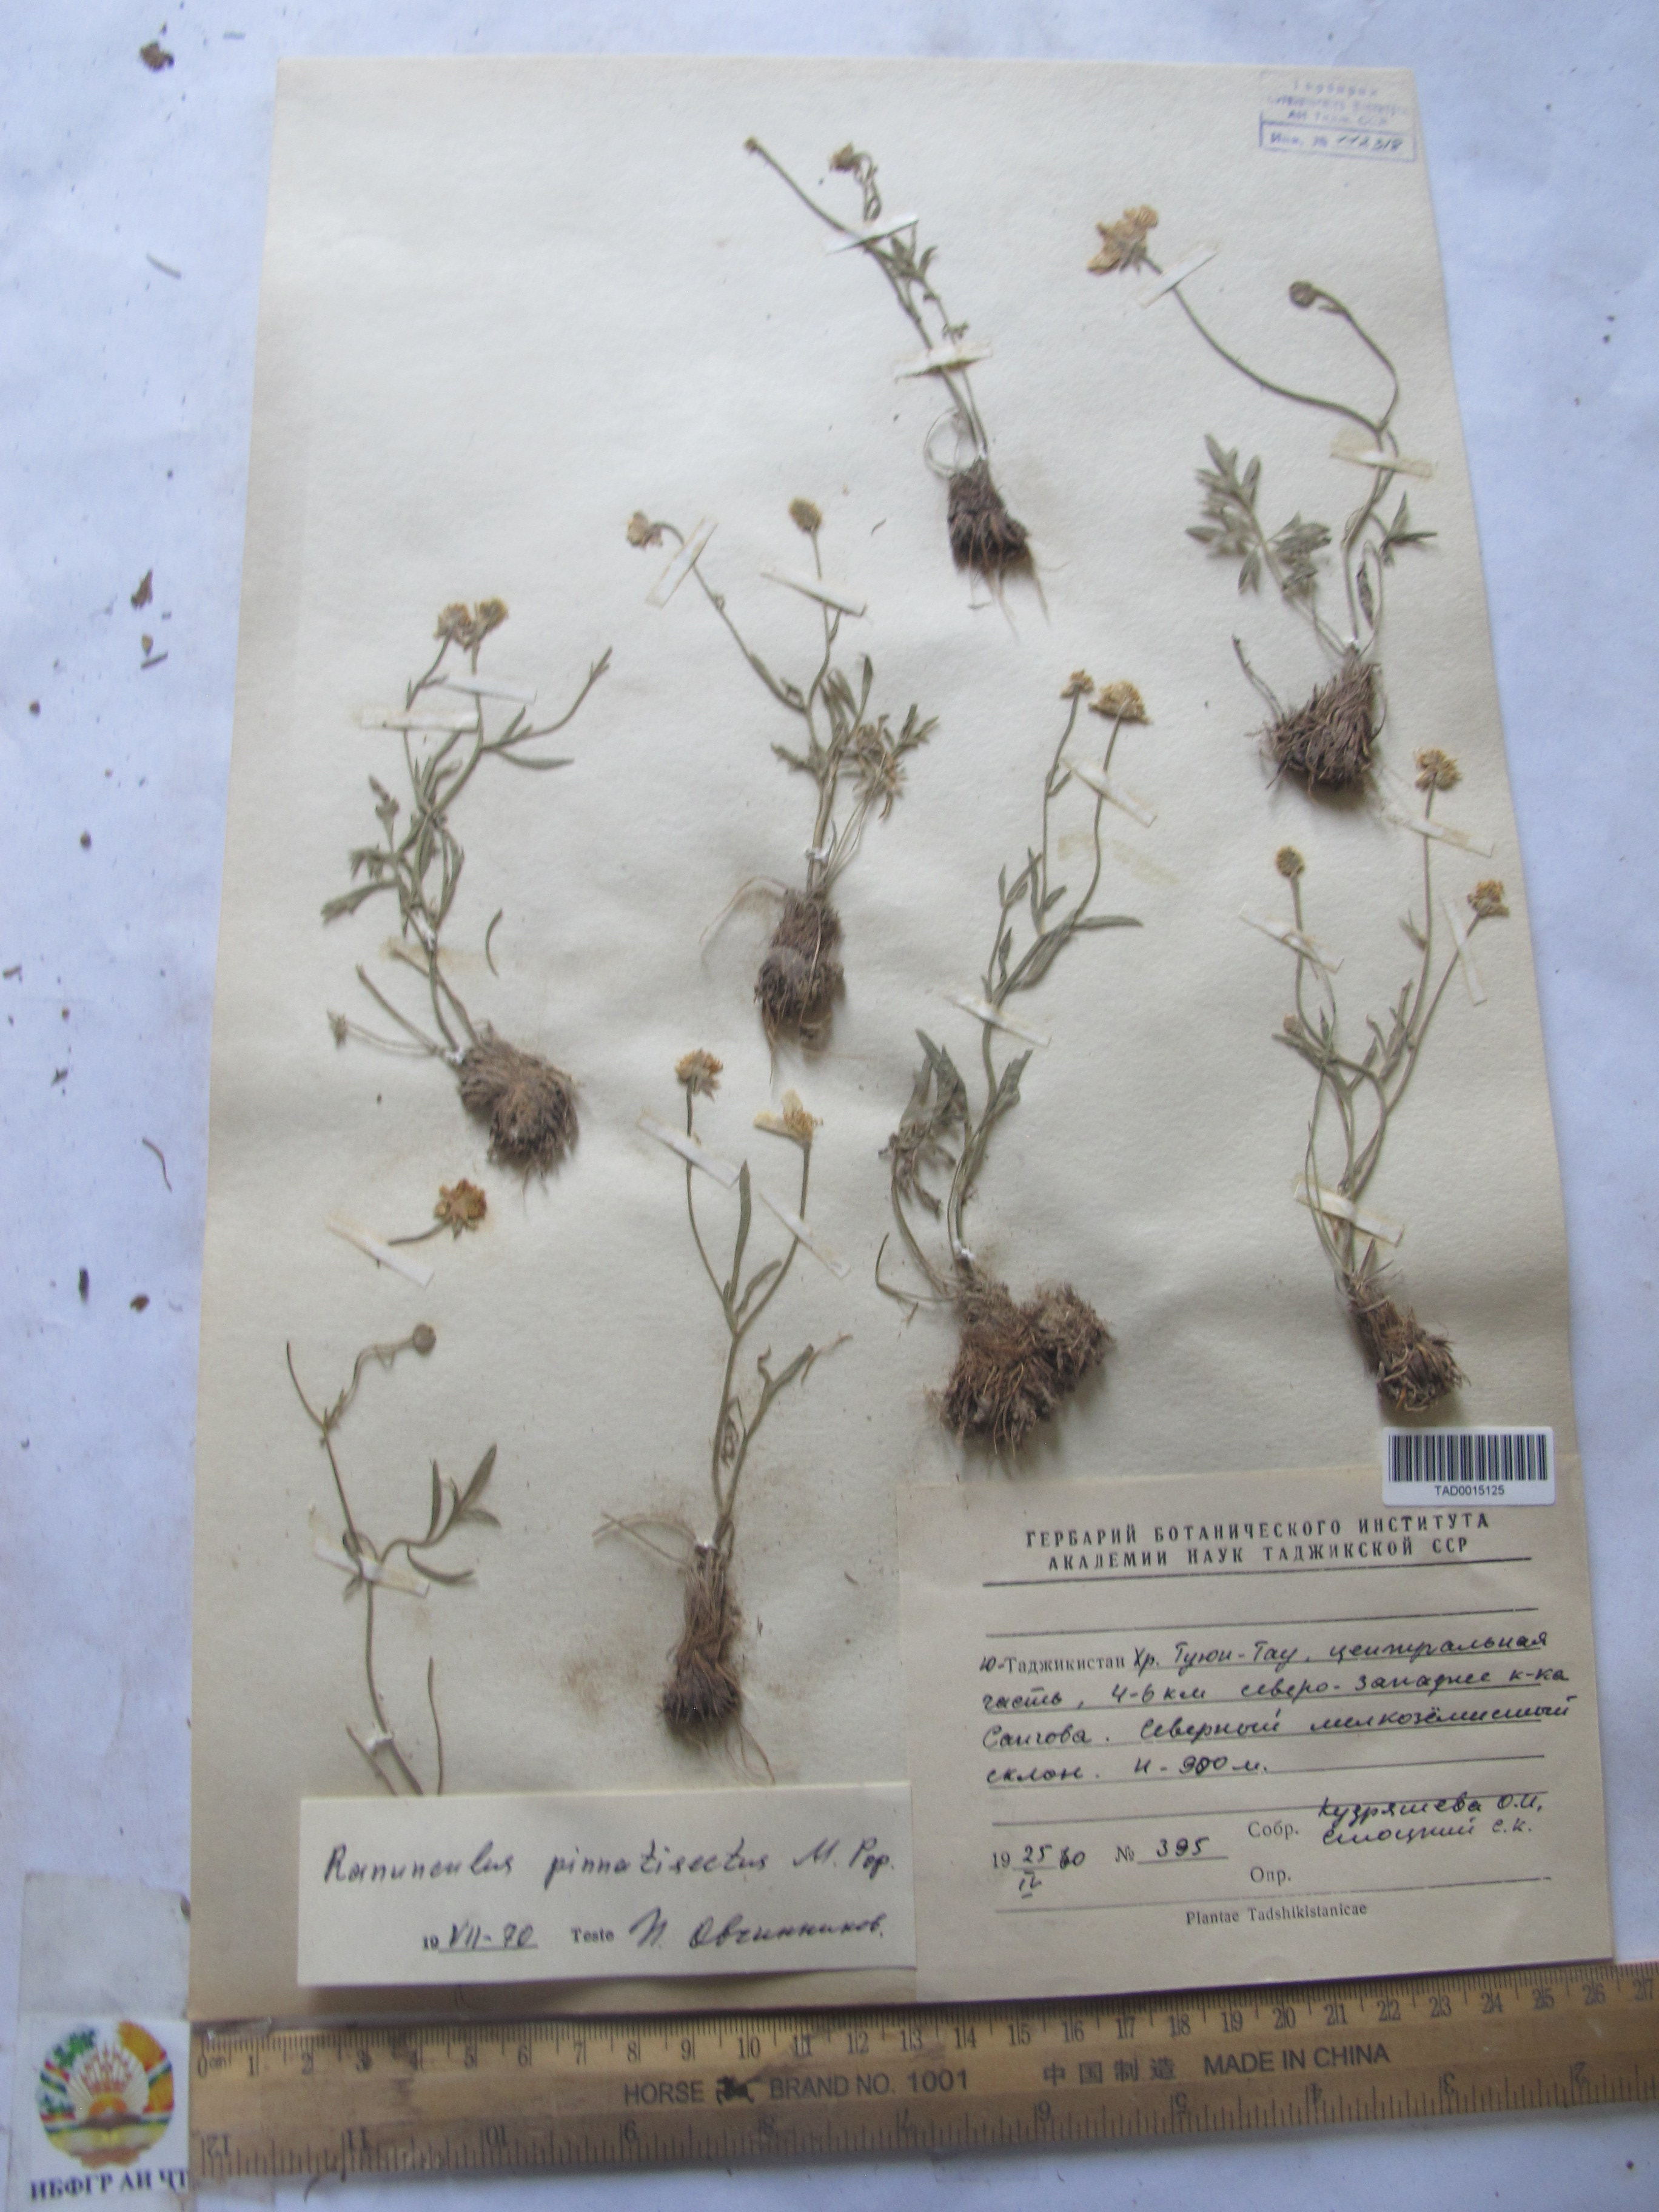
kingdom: Plantae
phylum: Tracheophyta
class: Magnoliopsida
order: Ranunculales
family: Ranunculaceae
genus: Ranunculus
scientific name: Ranunculus pinnatisectus
